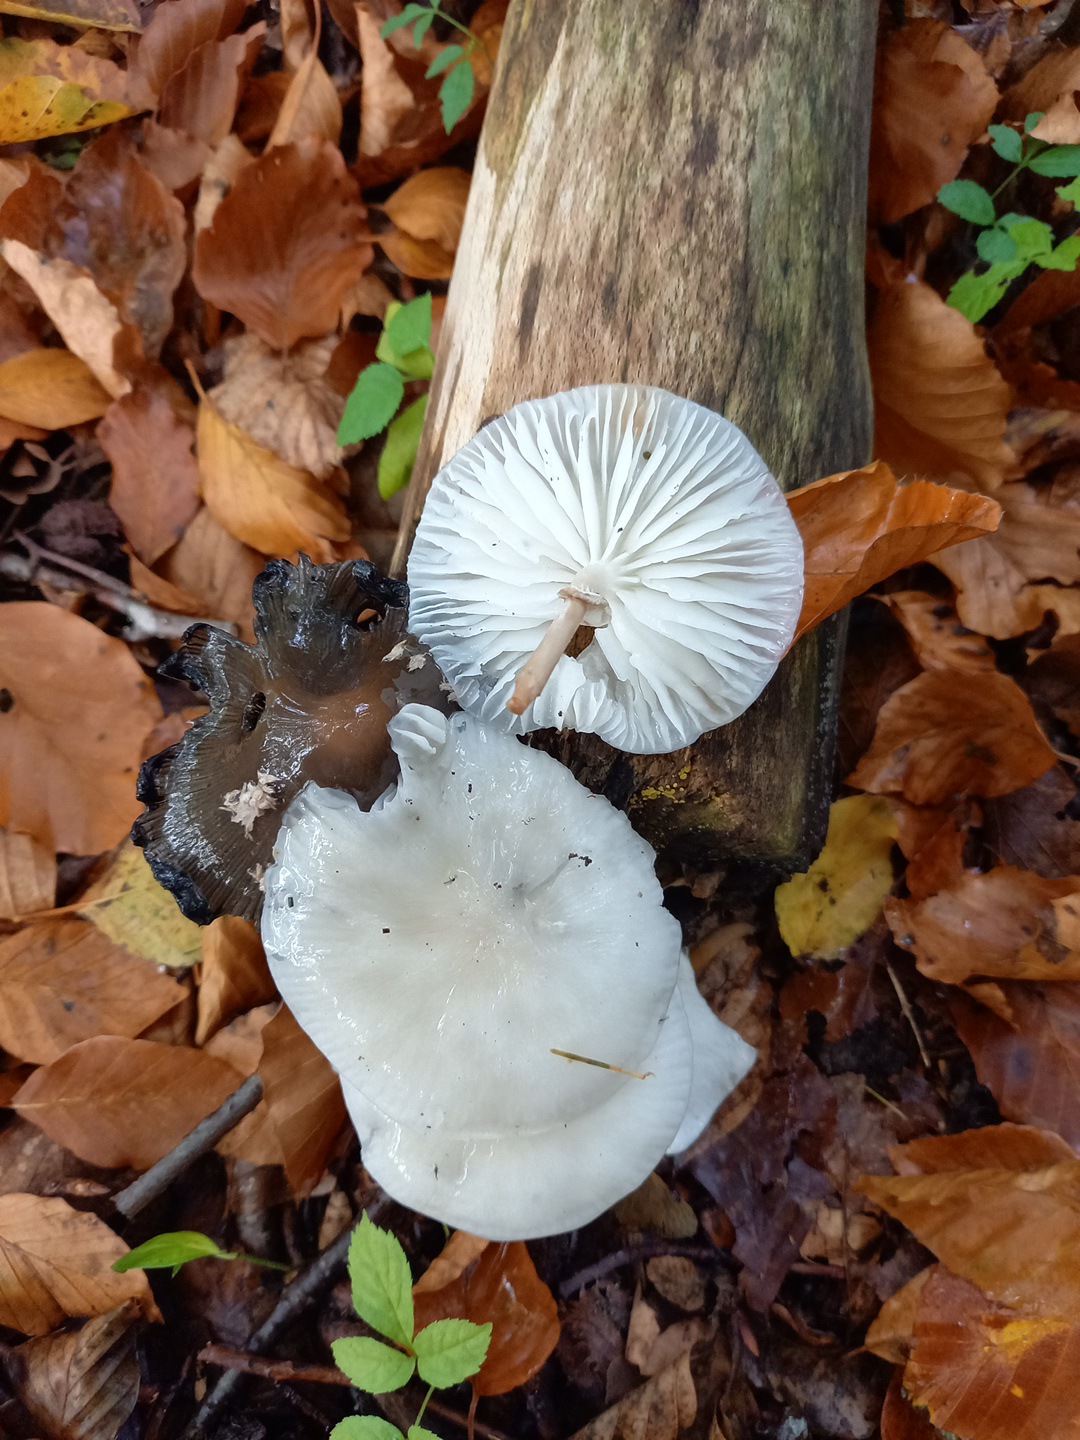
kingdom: Fungi
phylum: Basidiomycota
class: Agaricomycetes
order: Agaricales
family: Physalacriaceae
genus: Mucidula
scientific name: Mucidula mucida
